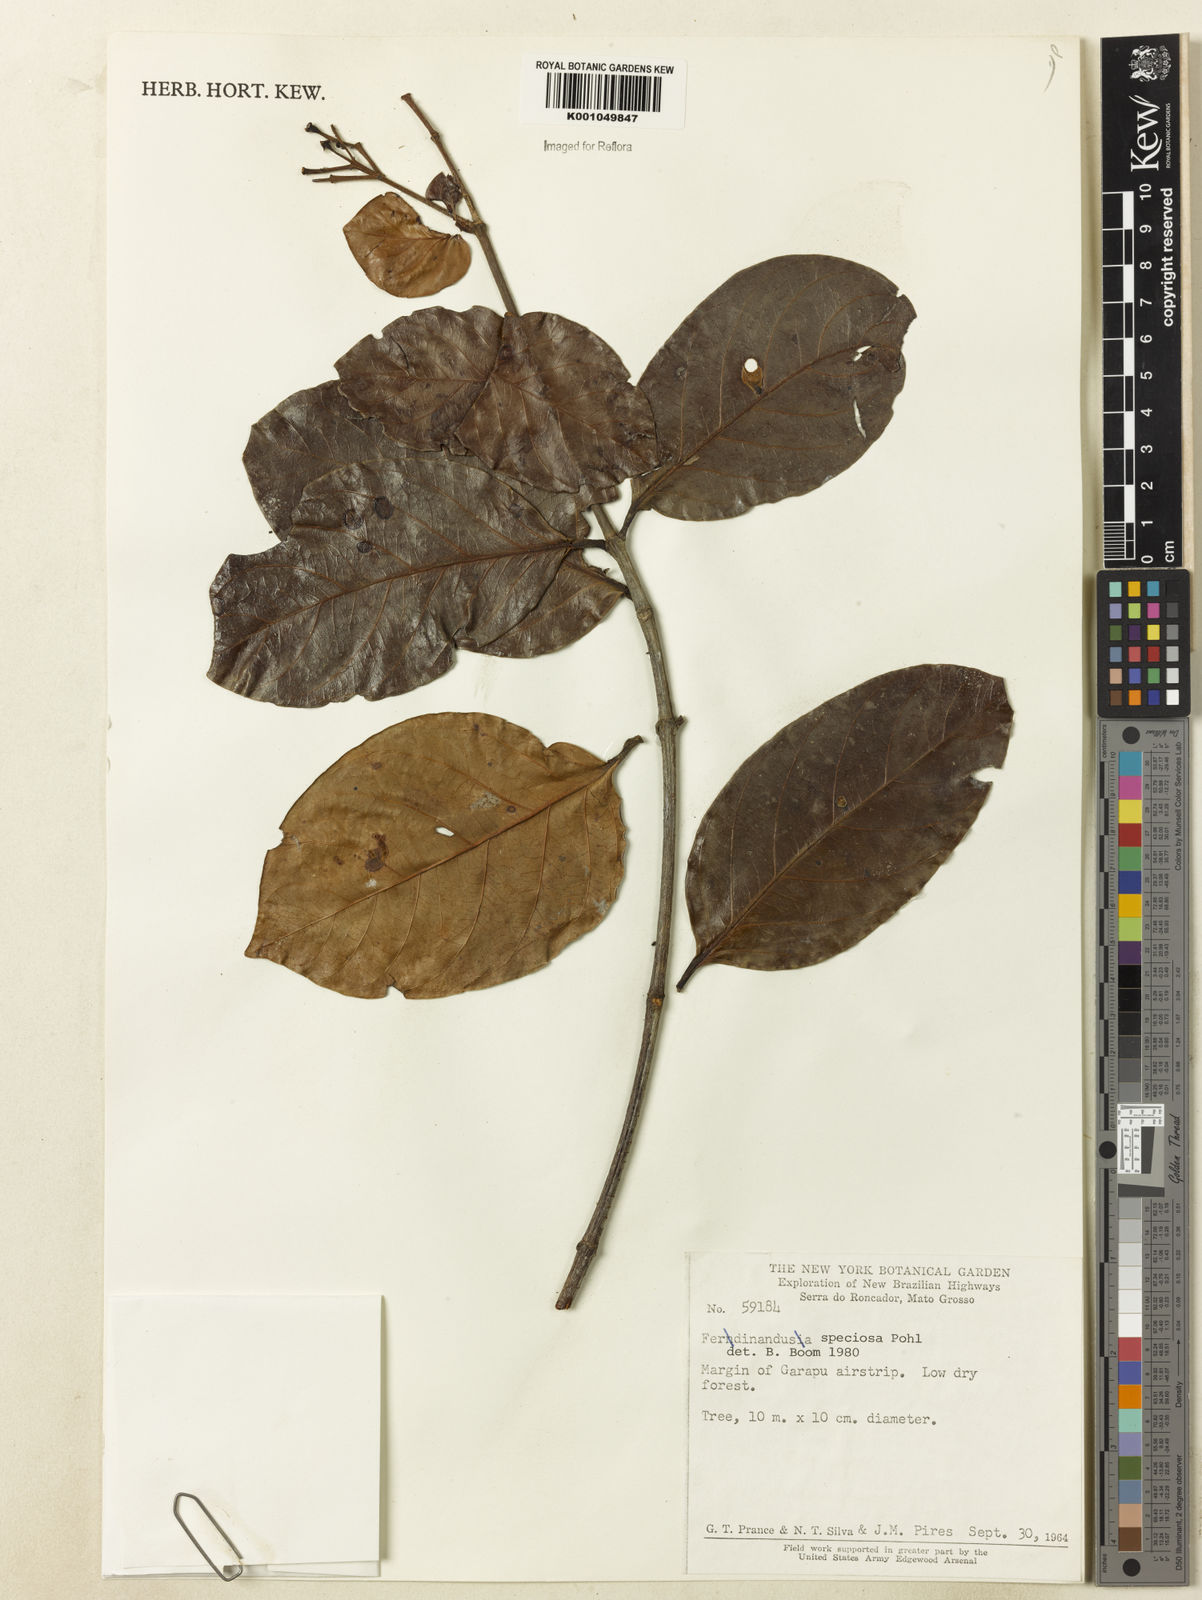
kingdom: Plantae
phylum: Tracheophyta
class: Magnoliopsida
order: Gentianales
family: Rubiaceae
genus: Ferdinandusa
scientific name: Ferdinandusa speciosa
